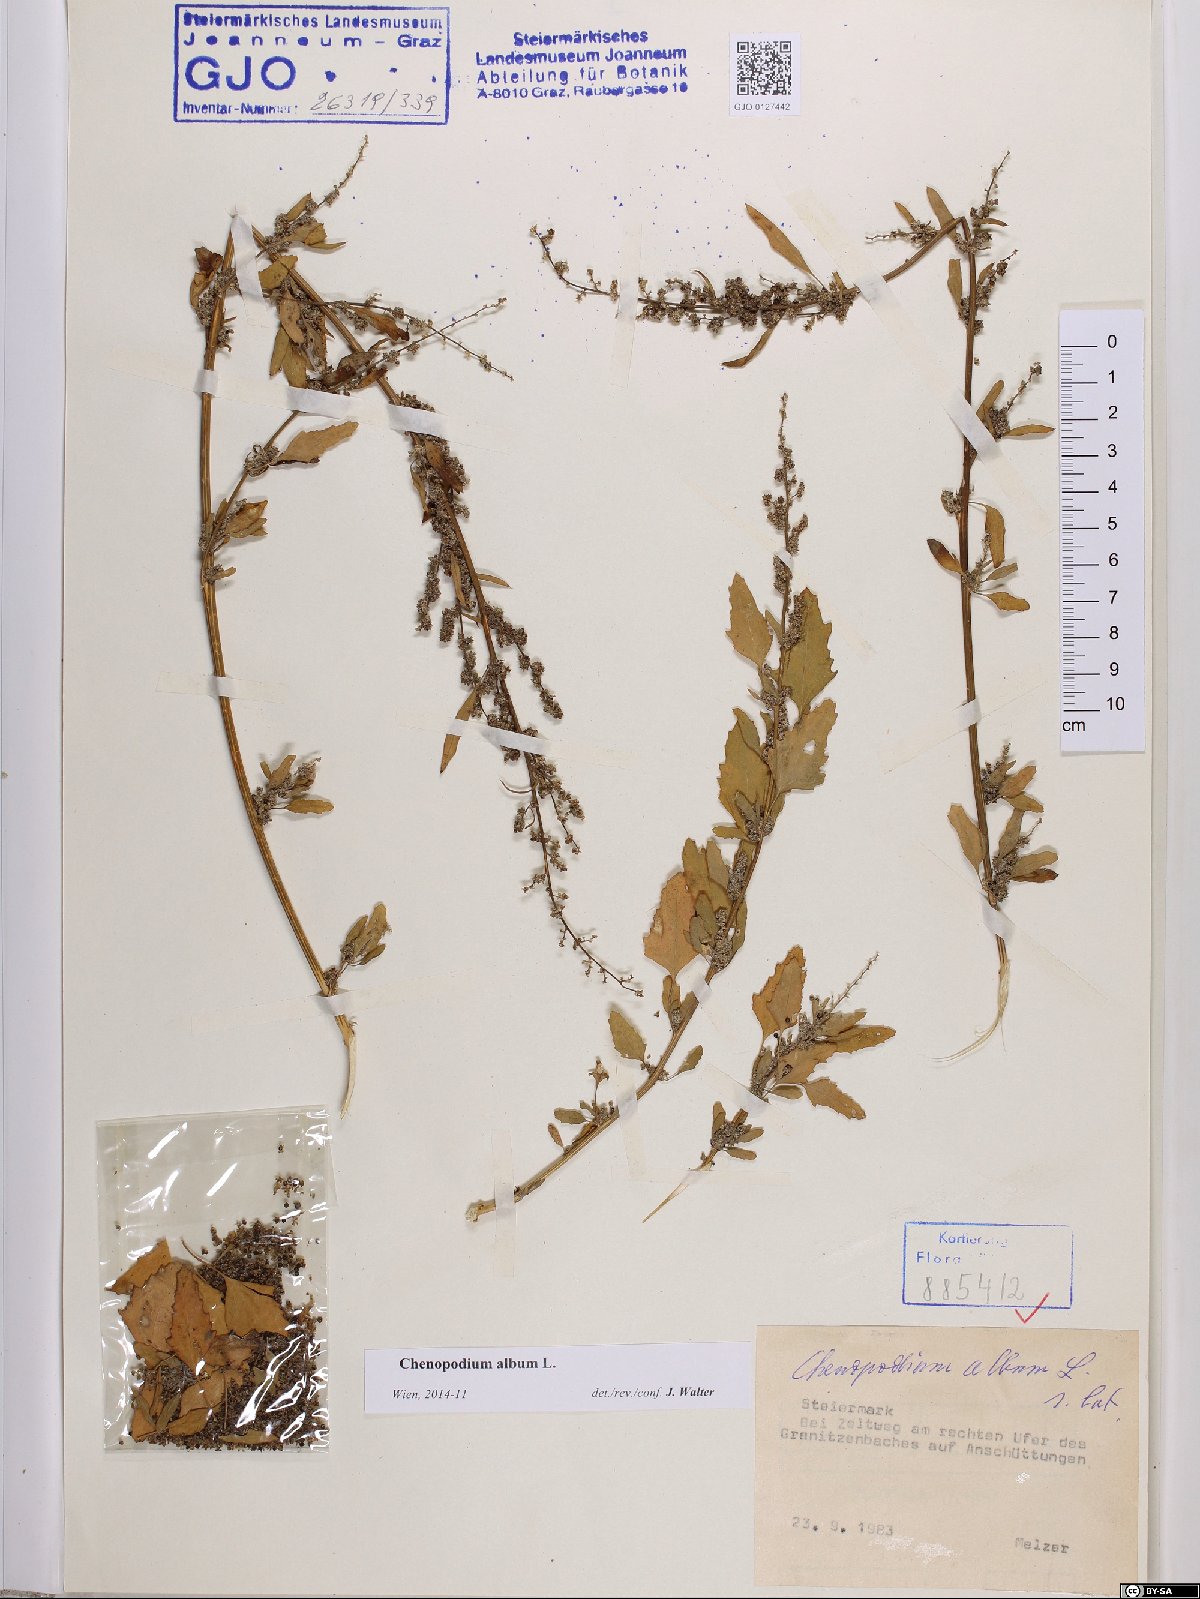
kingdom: Plantae
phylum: Tracheophyta
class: Magnoliopsida
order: Caryophyllales
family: Amaranthaceae
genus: Chenopodium
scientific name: Chenopodium album
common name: Fat-hen
